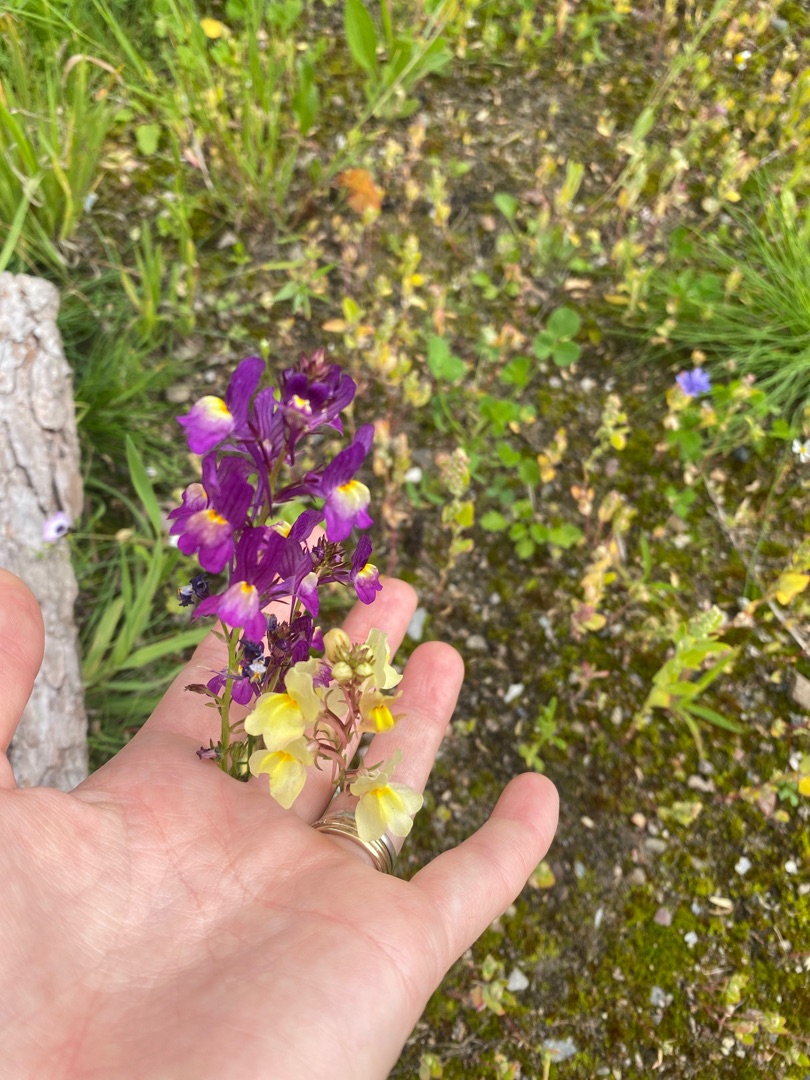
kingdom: Plantae
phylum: Tracheophyta
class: Magnoliopsida
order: Lamiales
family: Plantaginaceae
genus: Linaria
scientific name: Linaria maroccana
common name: Marokkansk torskemund
